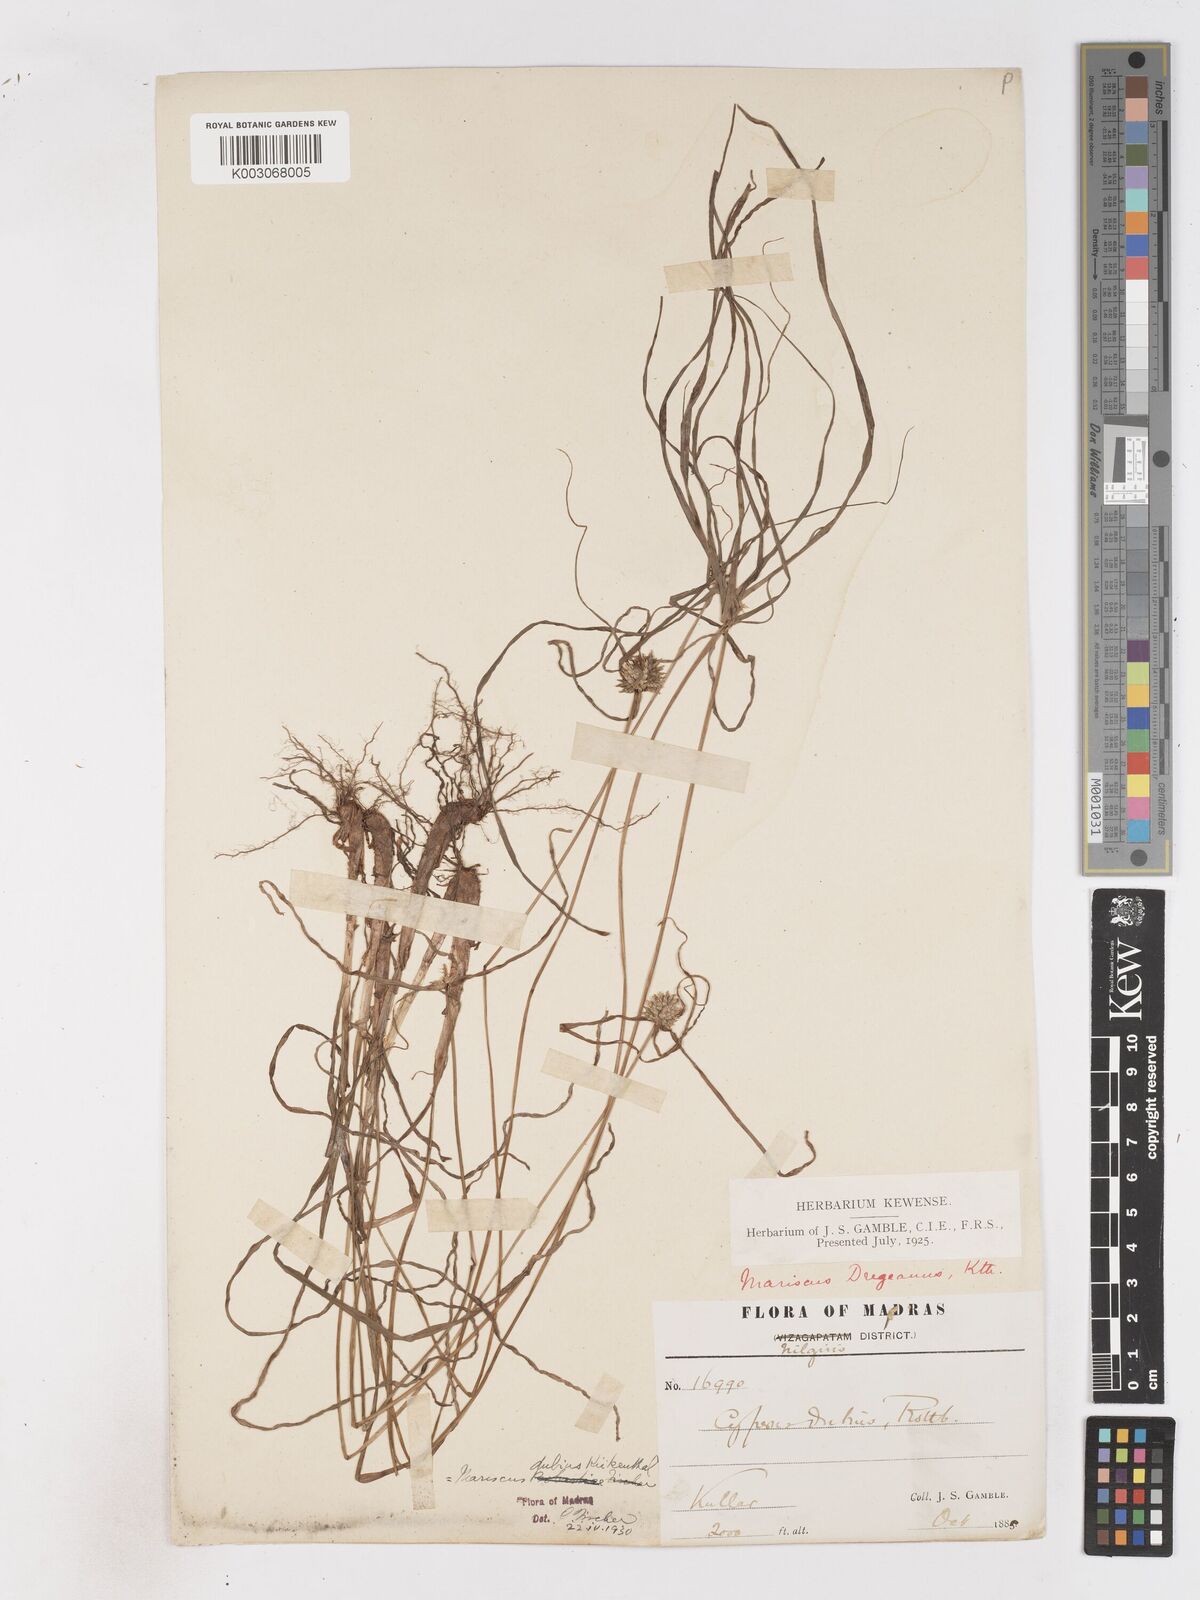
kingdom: Plantae
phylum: Tracheophyta
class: Liliopsida
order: Poales
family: Cyperaceae
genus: Cyperus
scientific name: Cyperus dubius
